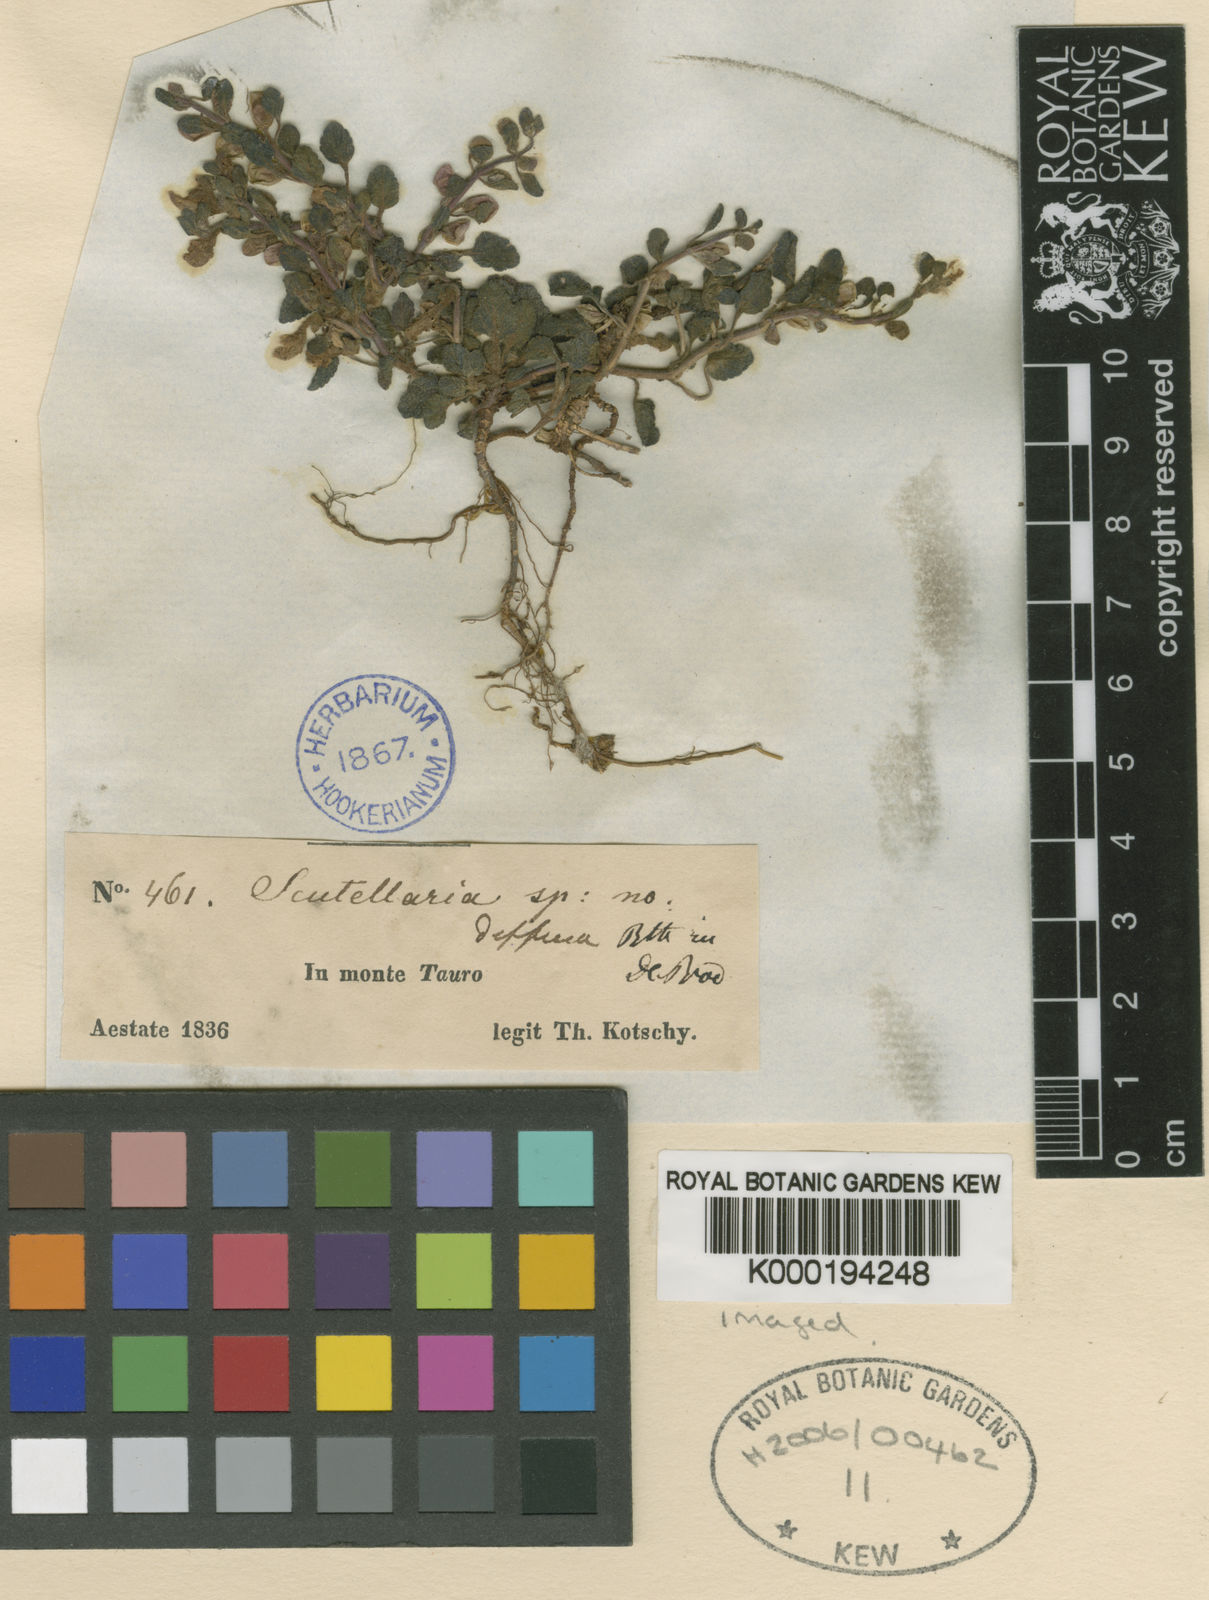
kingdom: Plantae
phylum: Tracheophyta
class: Magnoliopsida
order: Lamiales
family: Lamiaceae
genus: Scutellaria
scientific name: Scutellaria diffusa
